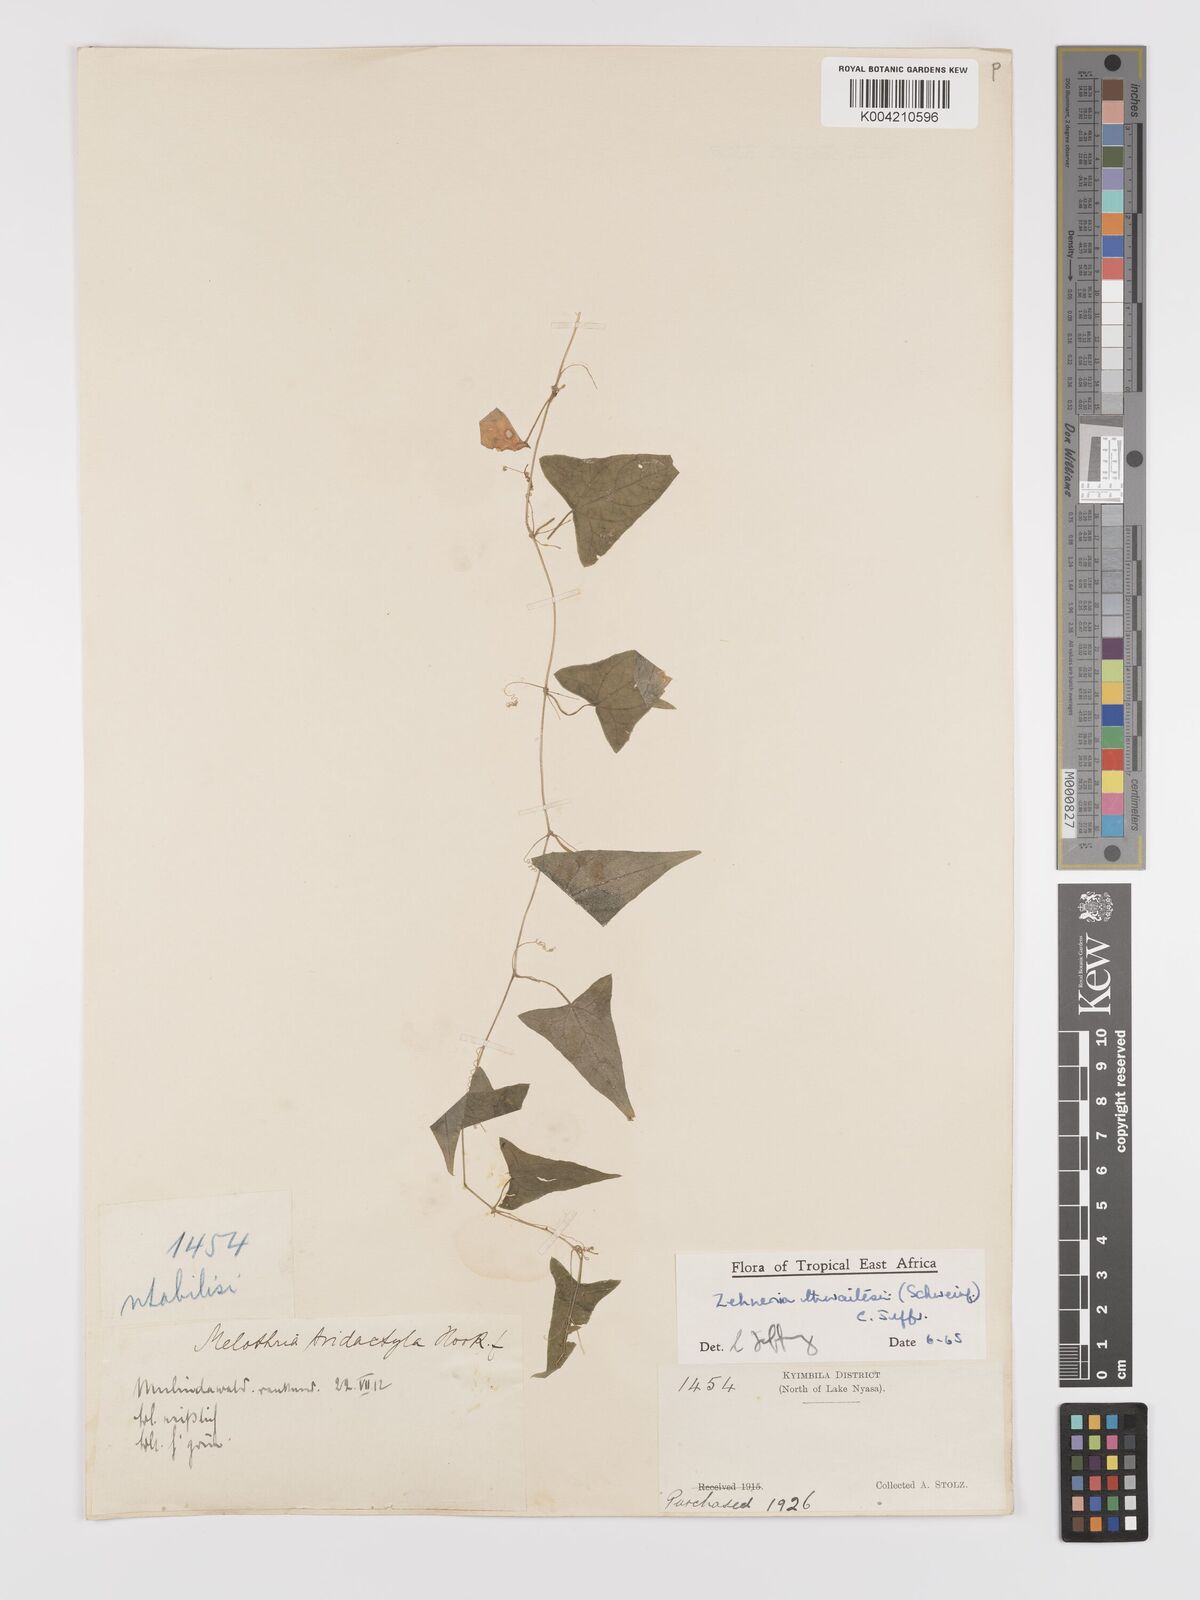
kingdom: Plantae
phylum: Tracheophyta
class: Magnoliopsida
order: Cucurbitales
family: Cucurbitaceae
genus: Zehneria
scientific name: Zehneria thwaitesii
